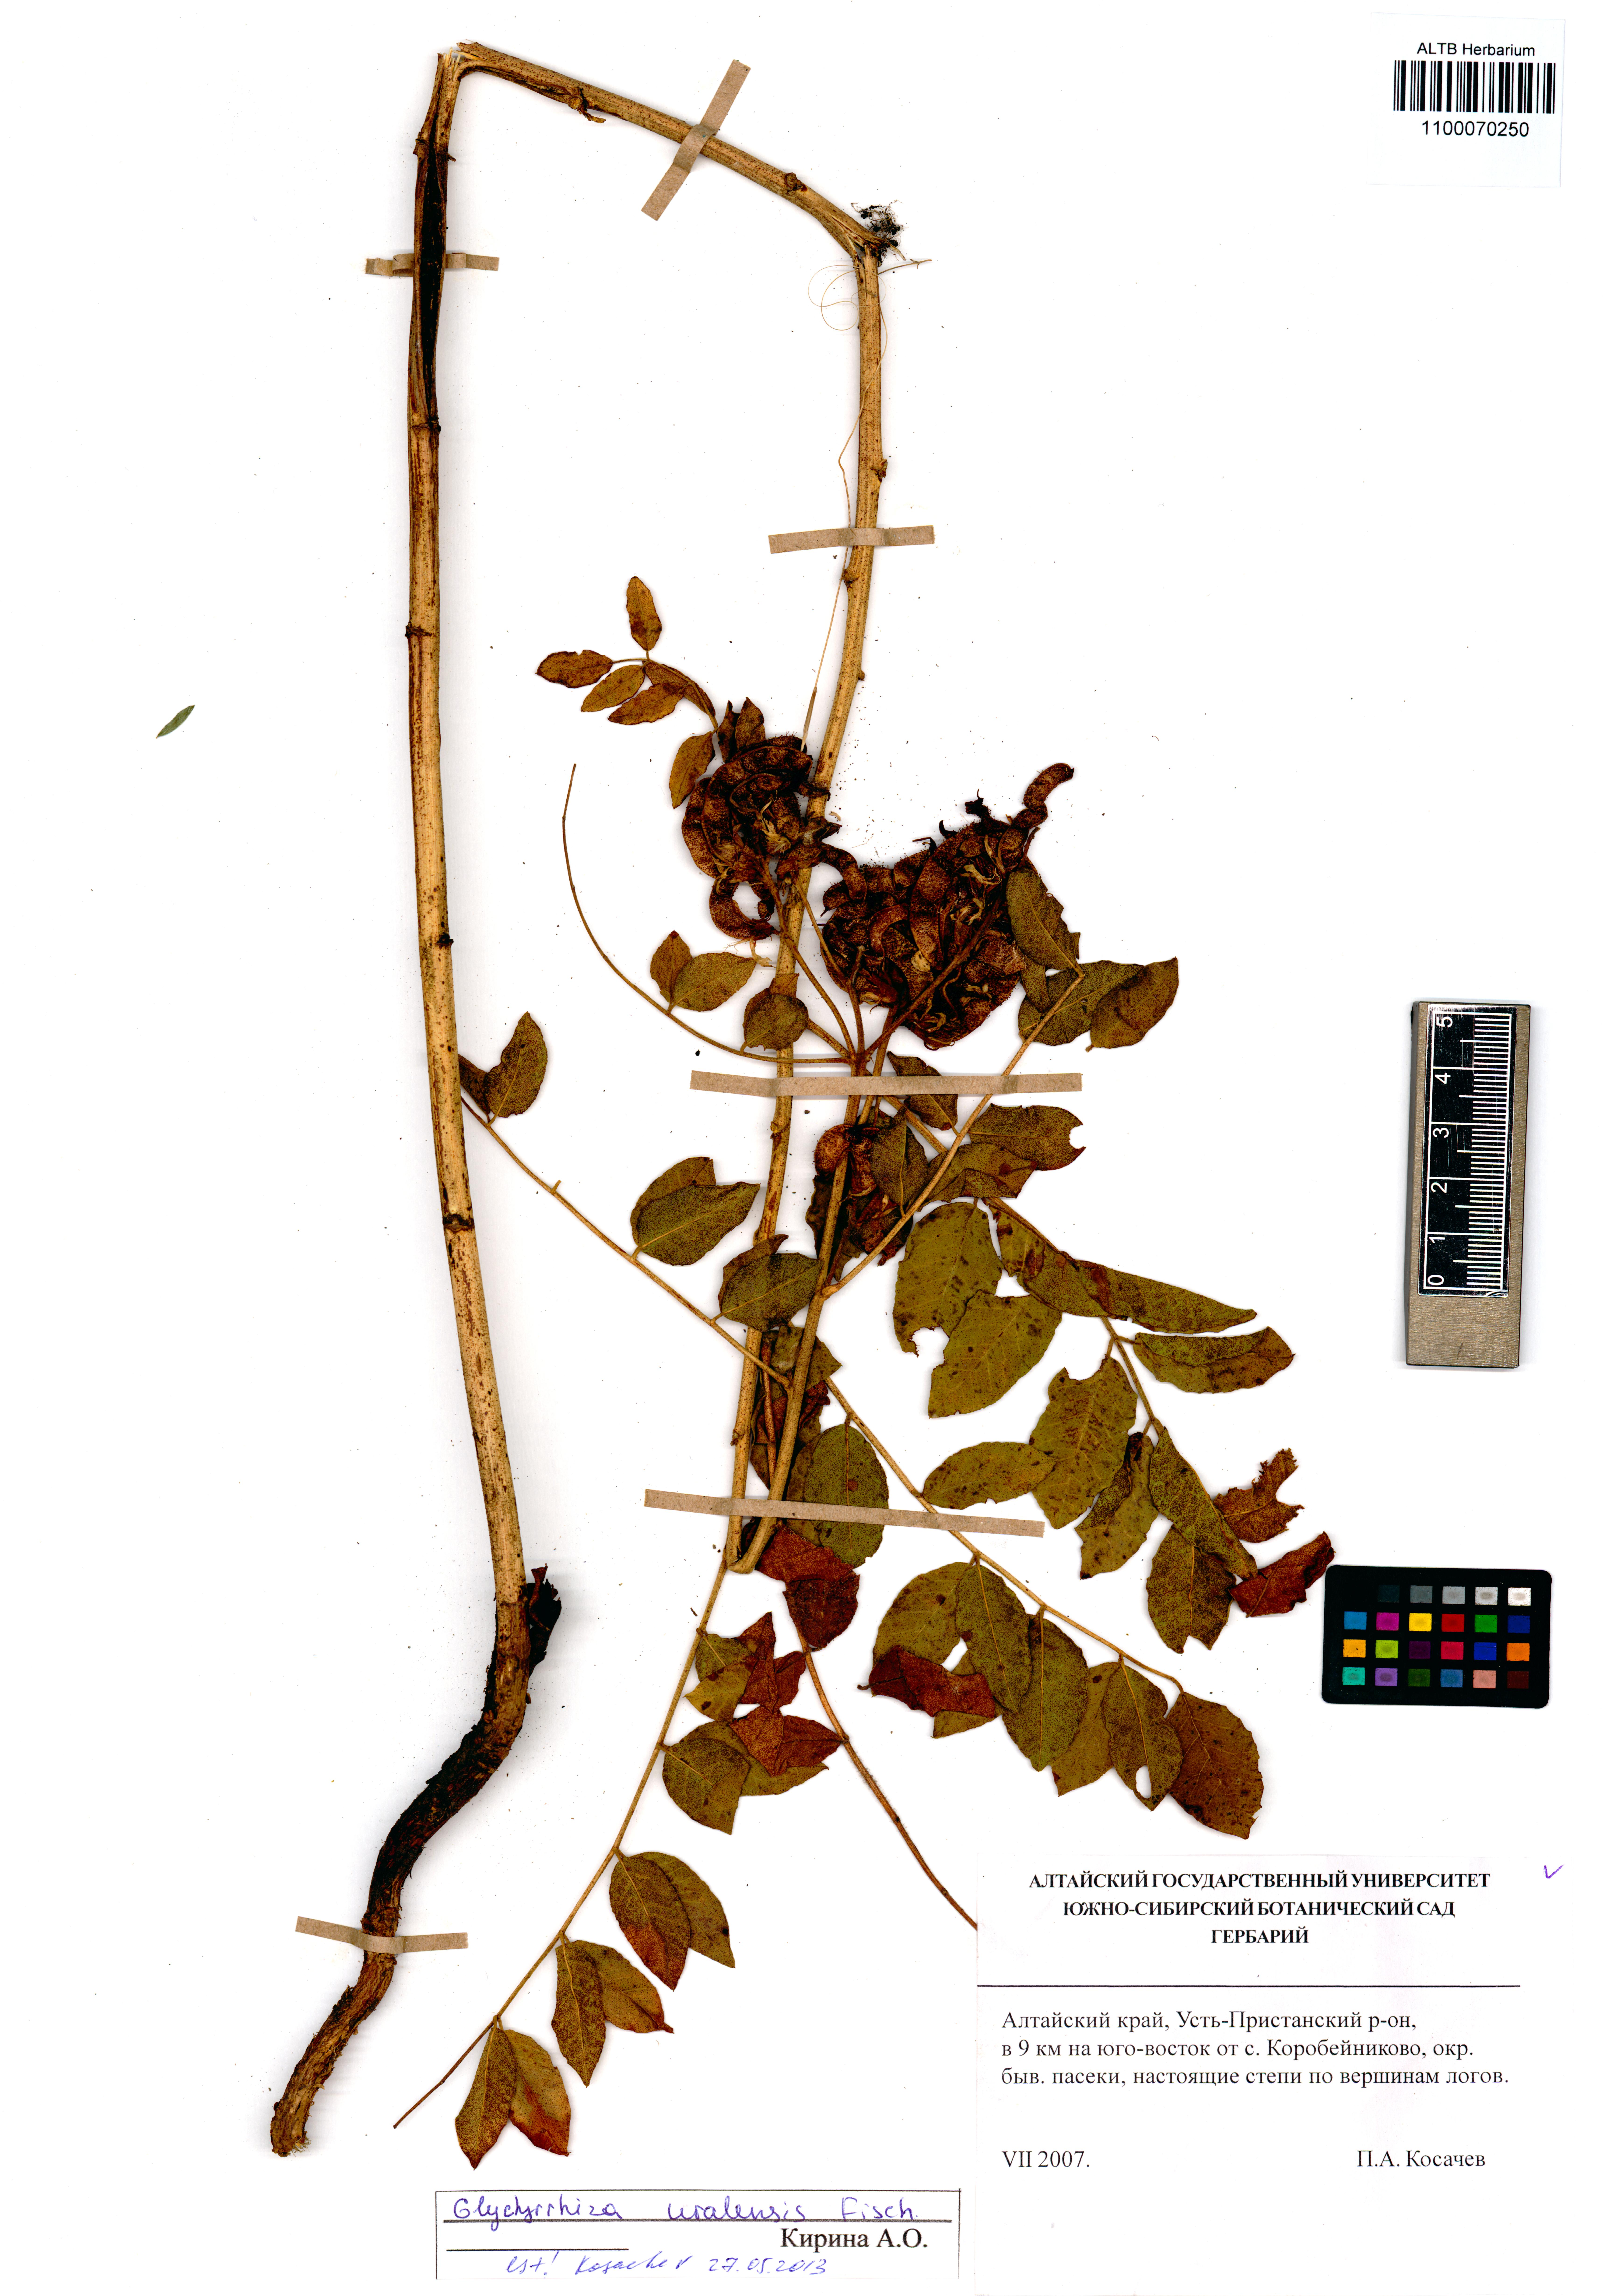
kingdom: Plantae
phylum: Tracheophyta
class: Magnoliopsida
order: Fabales
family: Fabaceae
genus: Glycyrrhiza
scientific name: Glycyrrhiza uralensis
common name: Chinese licorice
